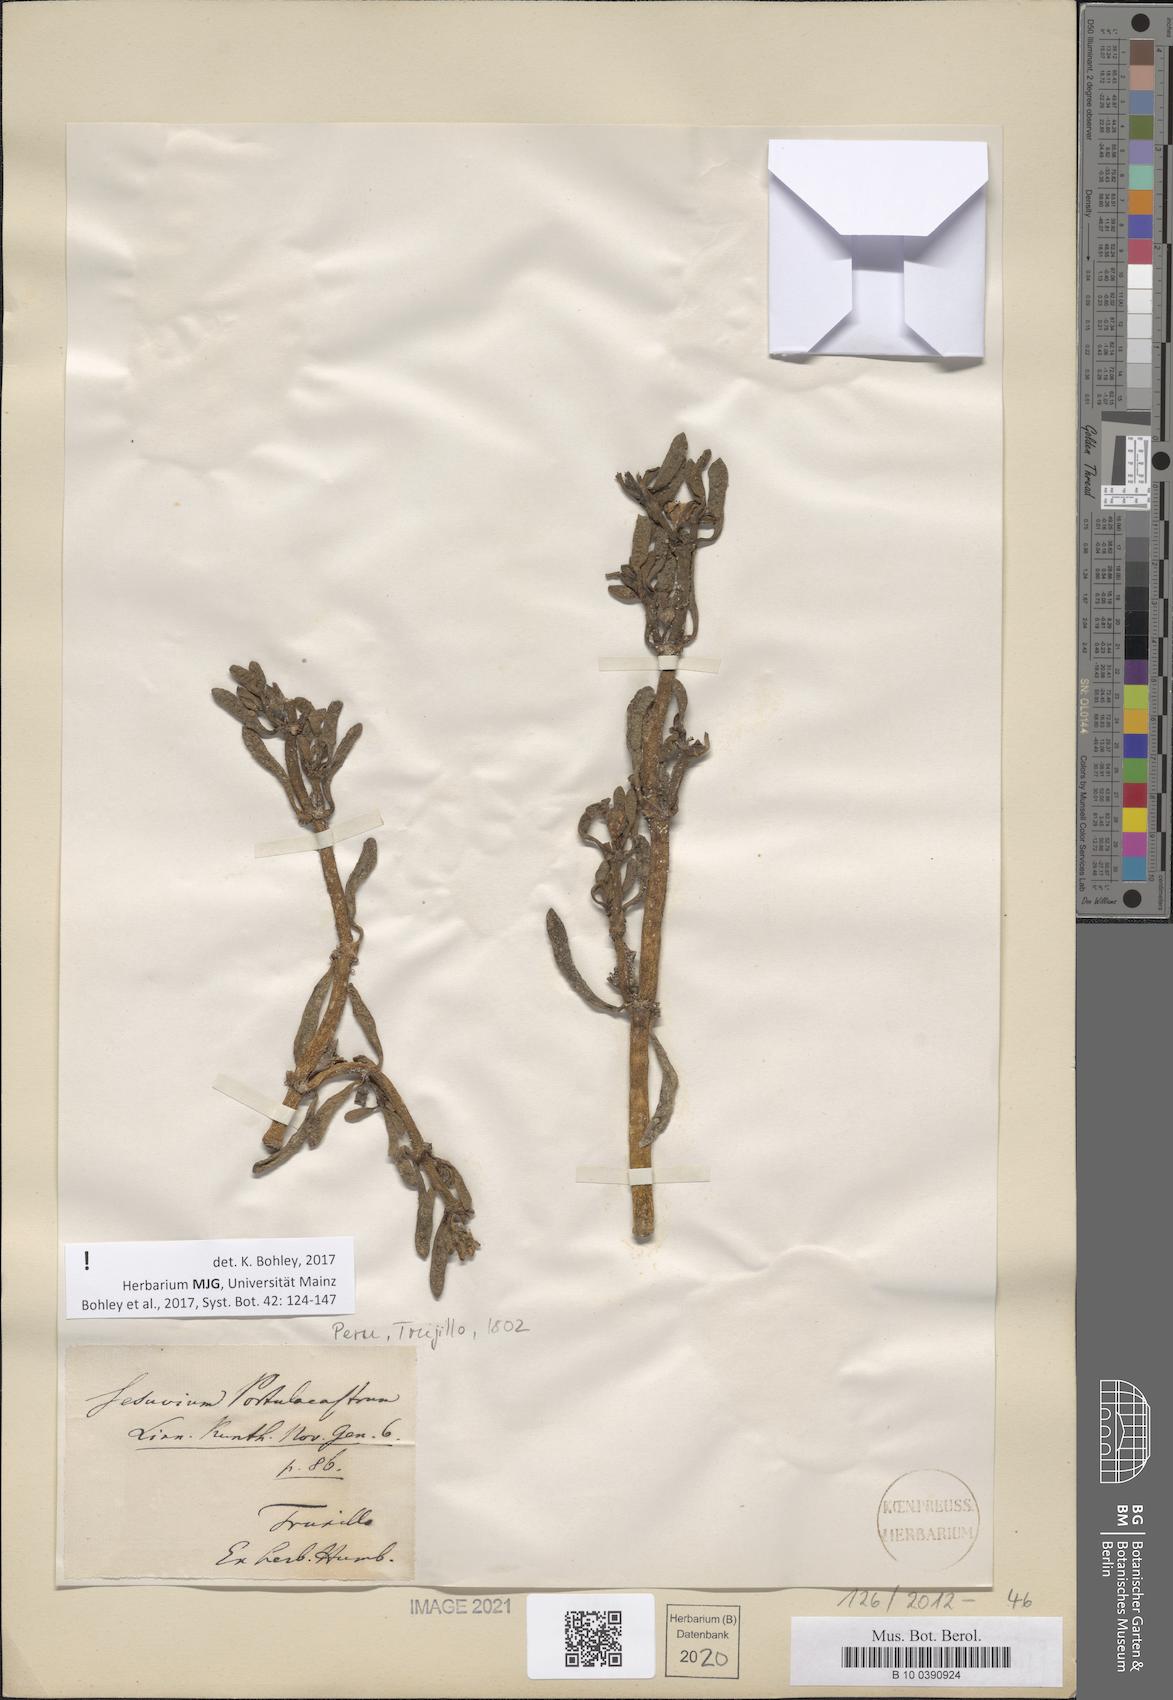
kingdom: Plantae
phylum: Tracheophyta
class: Magnoliopsida
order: Caryophyllales
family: Aizoaceae
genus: Sesuvium
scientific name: Sesuvium portulacastrum
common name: Sea-purslane
